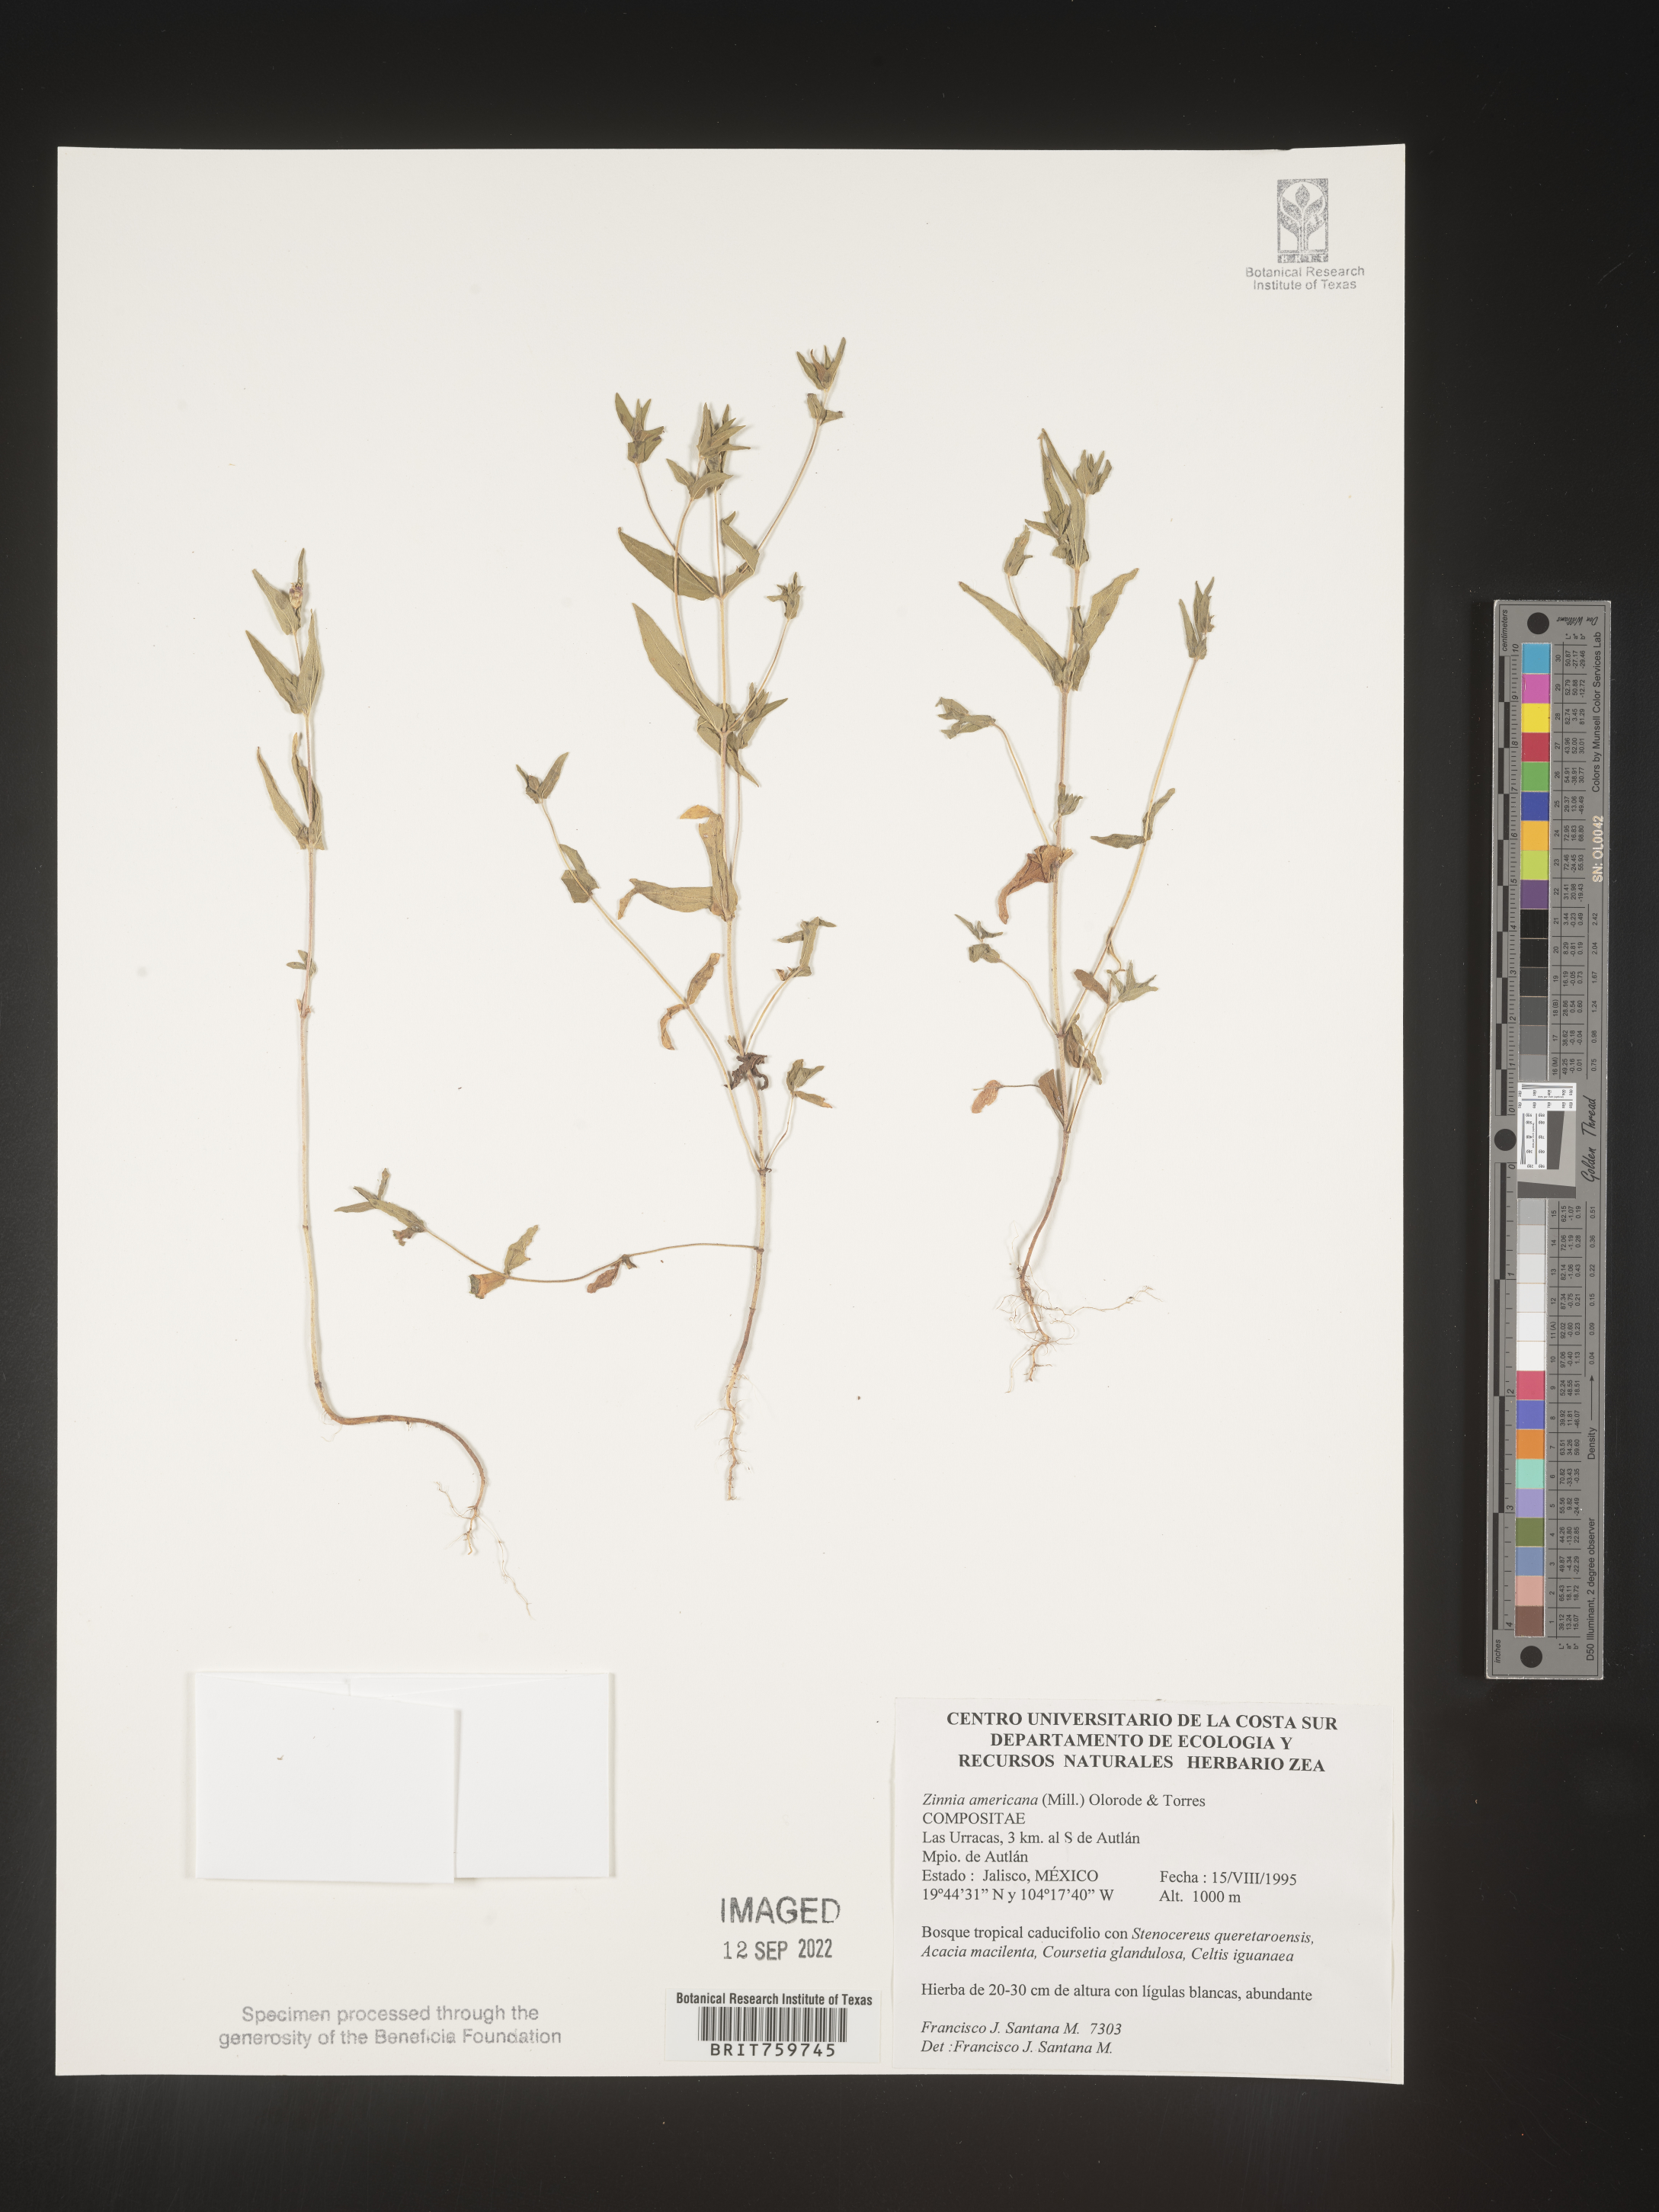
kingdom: Plantae
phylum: Tracheophyta
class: Magnoliopsida
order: Asterales
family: Asteraceae
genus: Zinnia
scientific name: Zinnia
